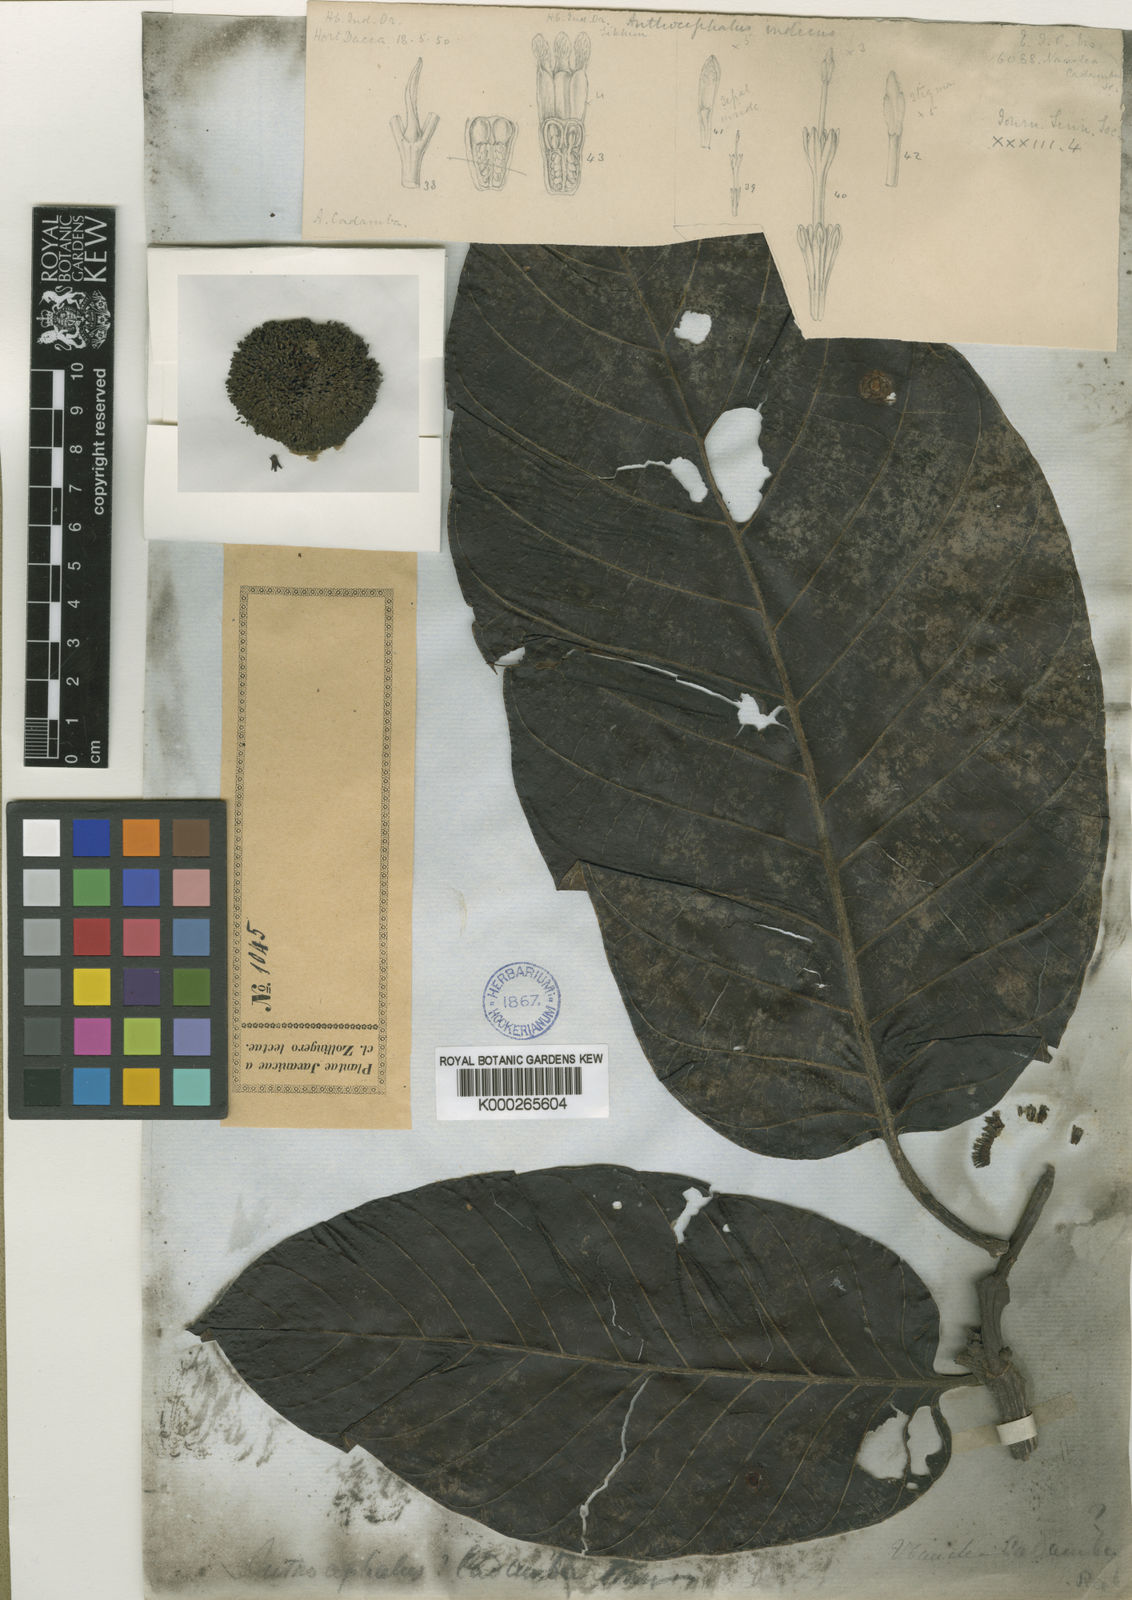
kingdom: Plantae
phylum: Tracheophyta
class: Magnoliopsida
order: Gentianales
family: Rubiaceae
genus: Neolamarckia
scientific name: Neolamarckia cadamba
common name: Leichhardt-pine
